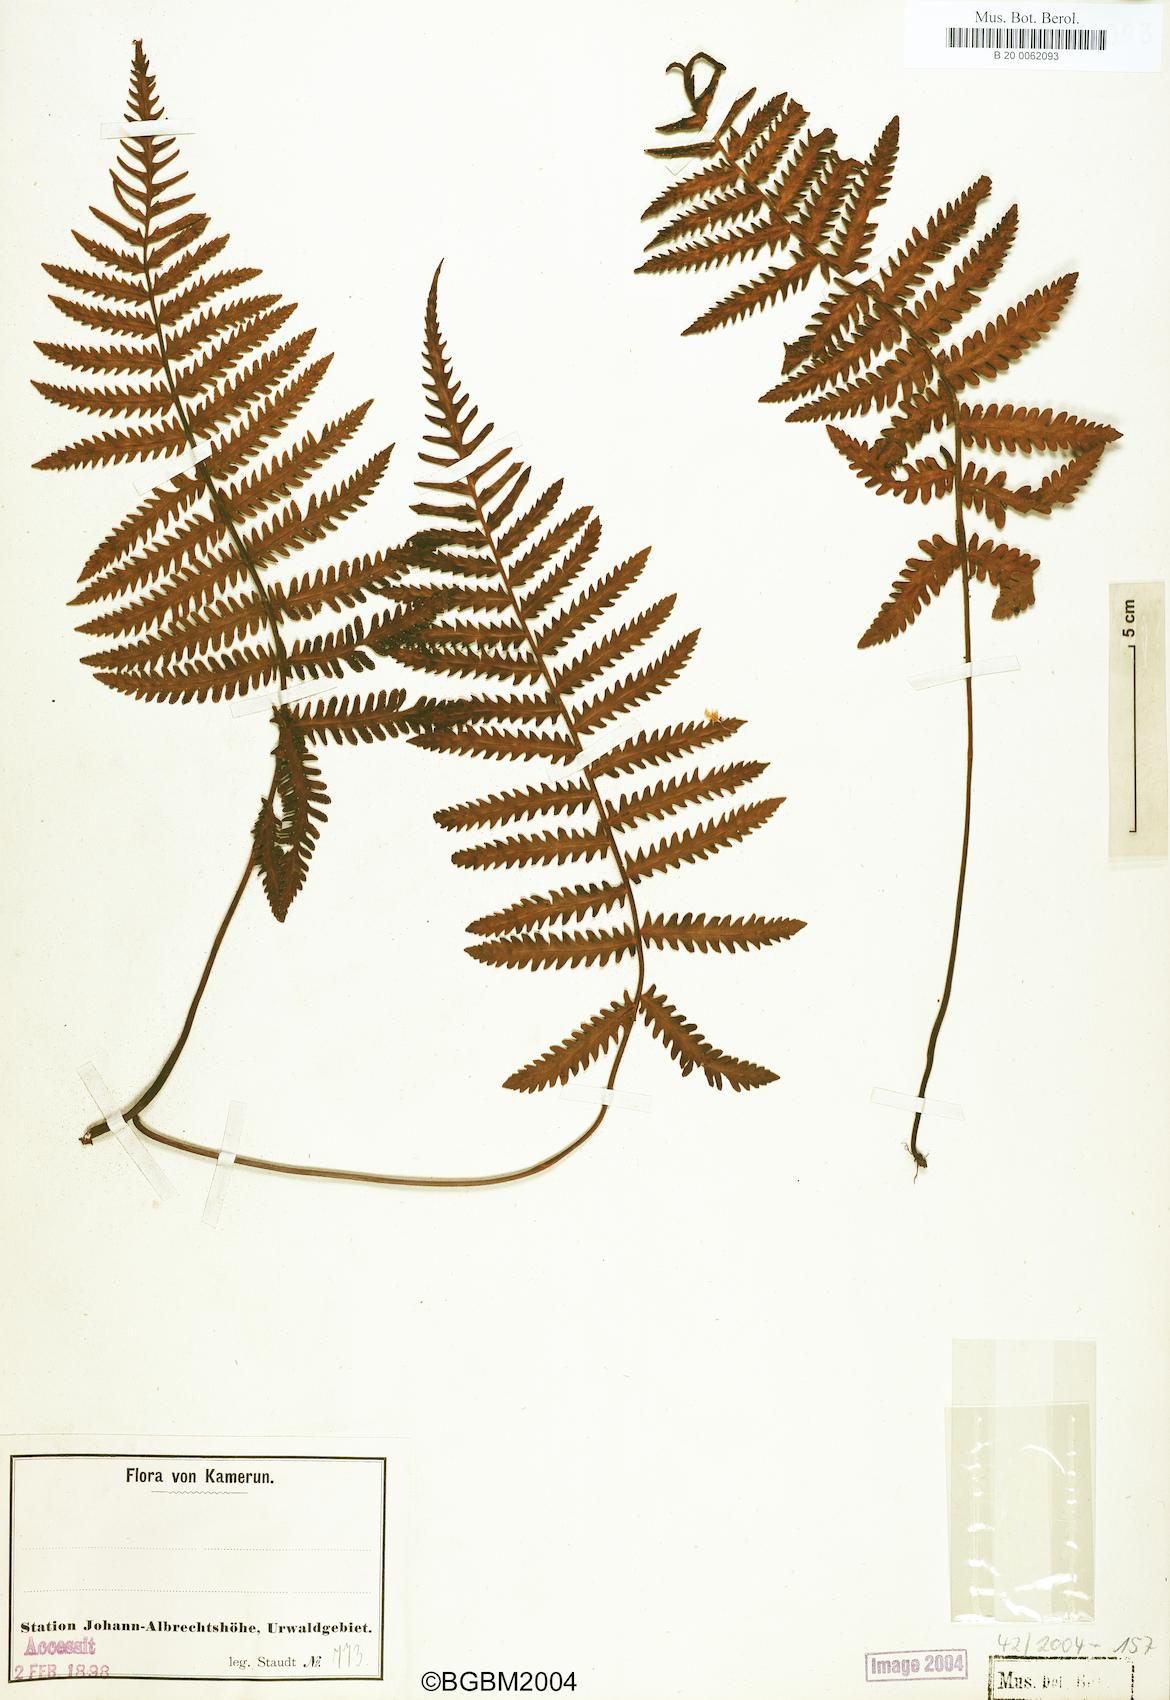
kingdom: Plantae
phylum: Tracheophyta
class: Polypodiopsida
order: Polypodiales
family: Tectariaceae
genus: Arthropteris
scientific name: Arthropteris orientalis
